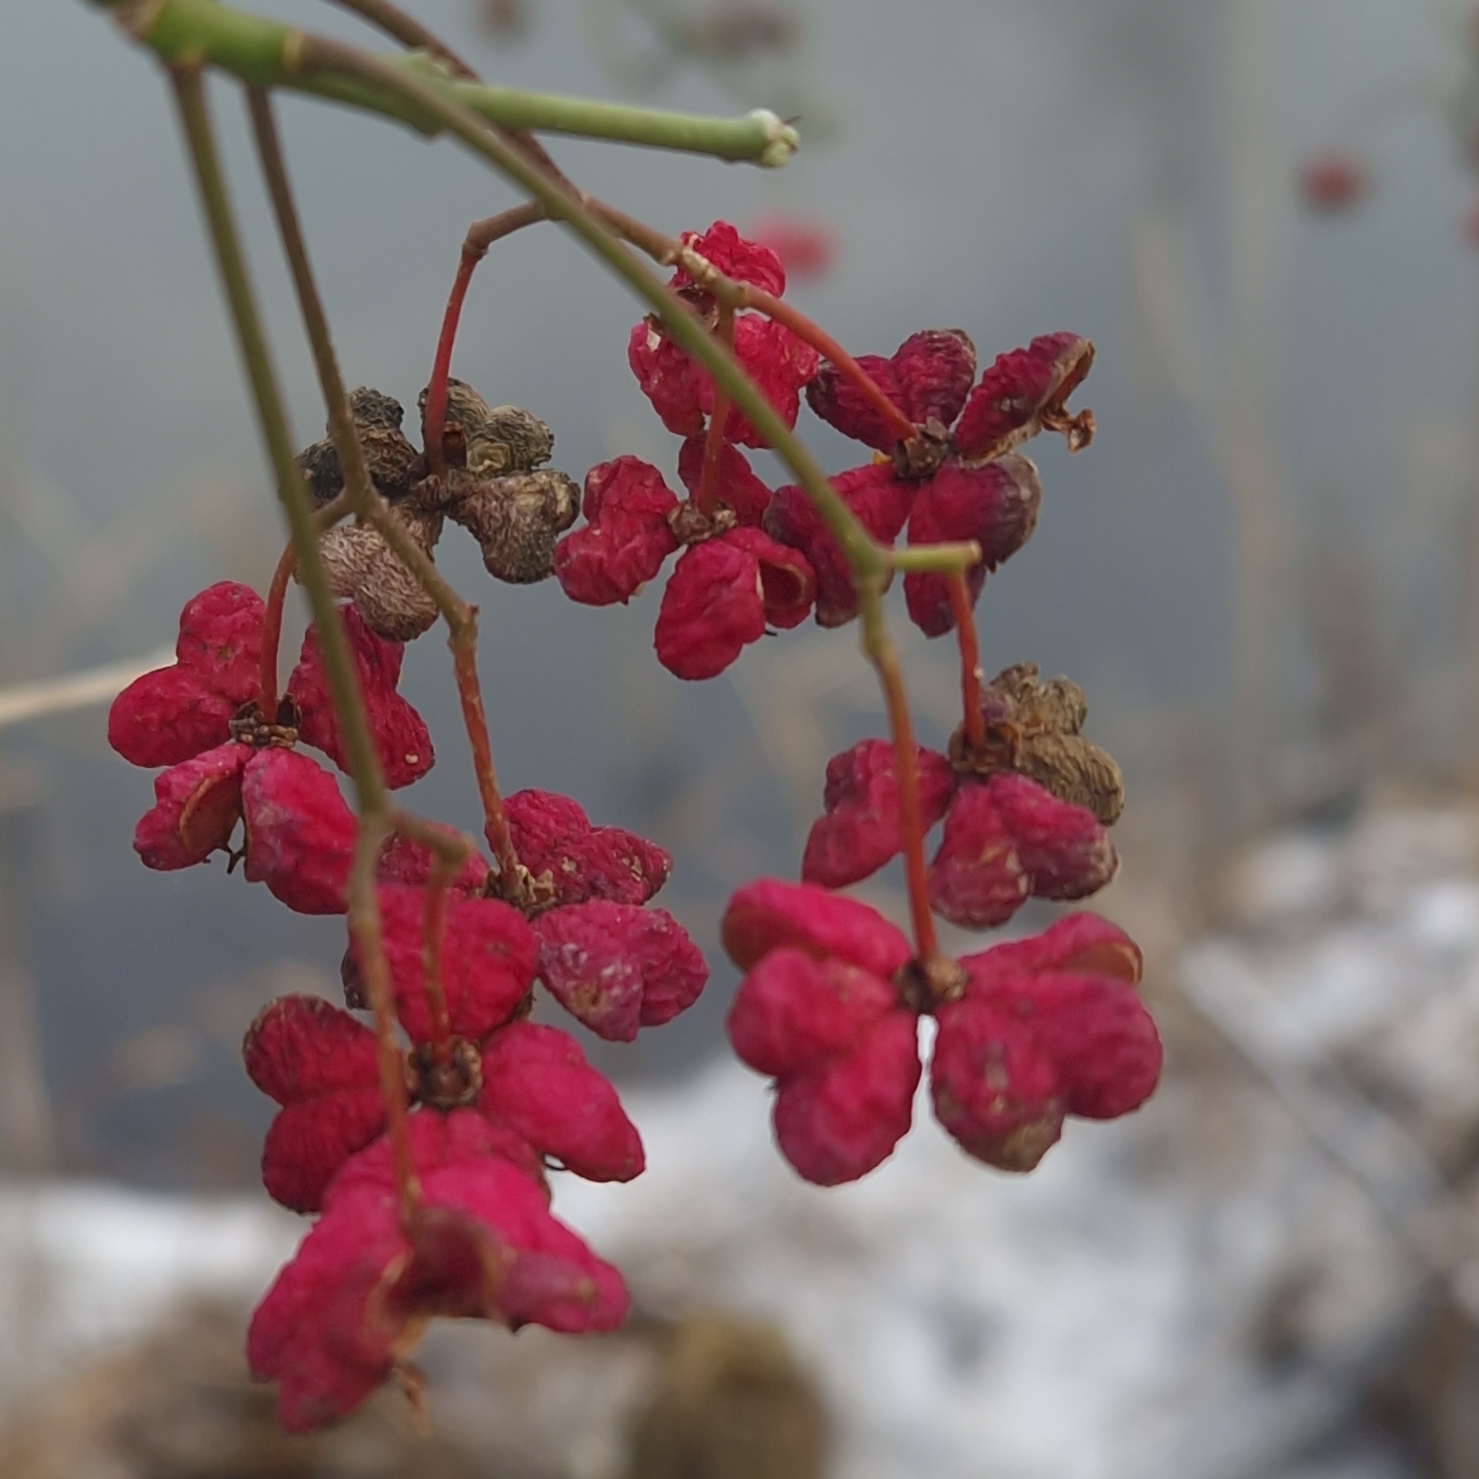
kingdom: Plantae
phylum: Tracheophyta
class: Magnoliopsida
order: Celastrales
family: Celastraceae
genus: Euonymus
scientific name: Euonymus europaeus
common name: Benved
